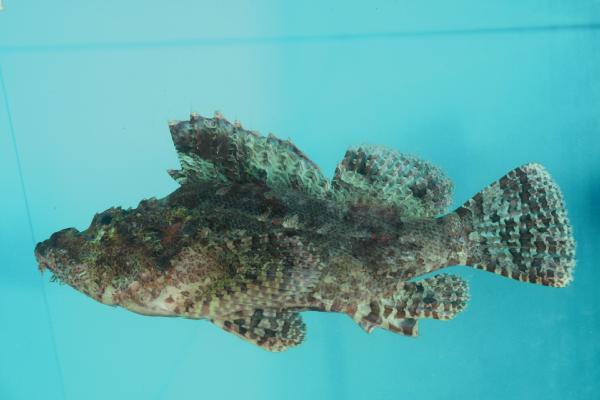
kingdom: Animalia
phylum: Chordata
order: Scorpaeniformes
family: Scorpaenidae
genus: Scorpaenopsis
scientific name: Scorpaenopsis venosa
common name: Raggy scorpionfish
